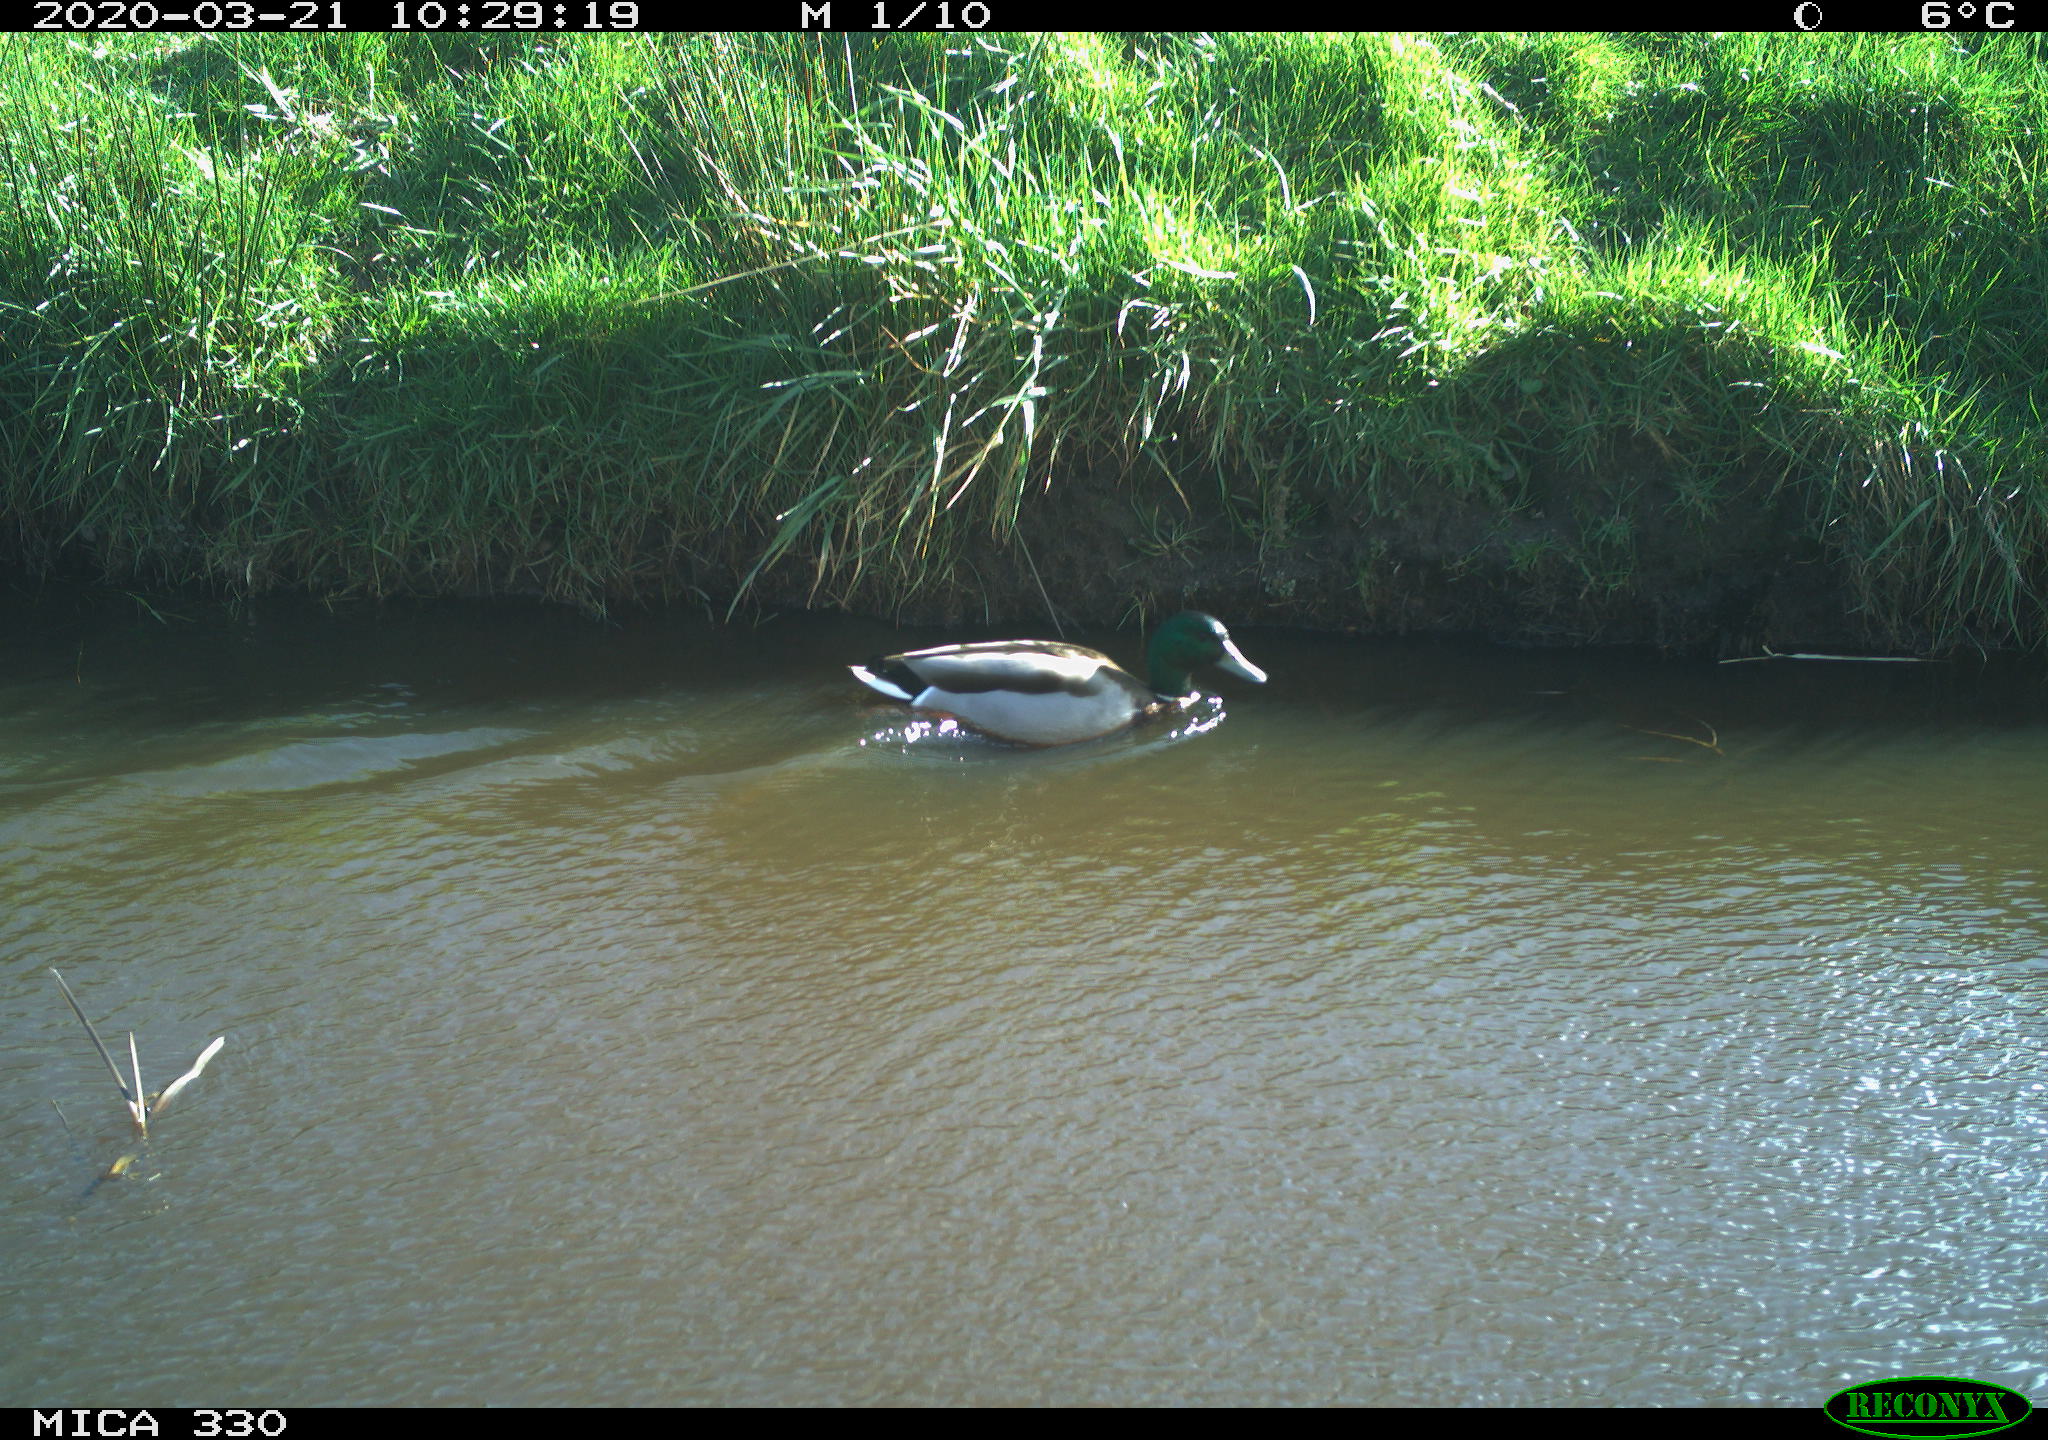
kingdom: Animalia
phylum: Chordata
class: Aves
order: Anseriformes
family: Anatidae
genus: Anas
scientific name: Anas platyrhynchos
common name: Mallard
